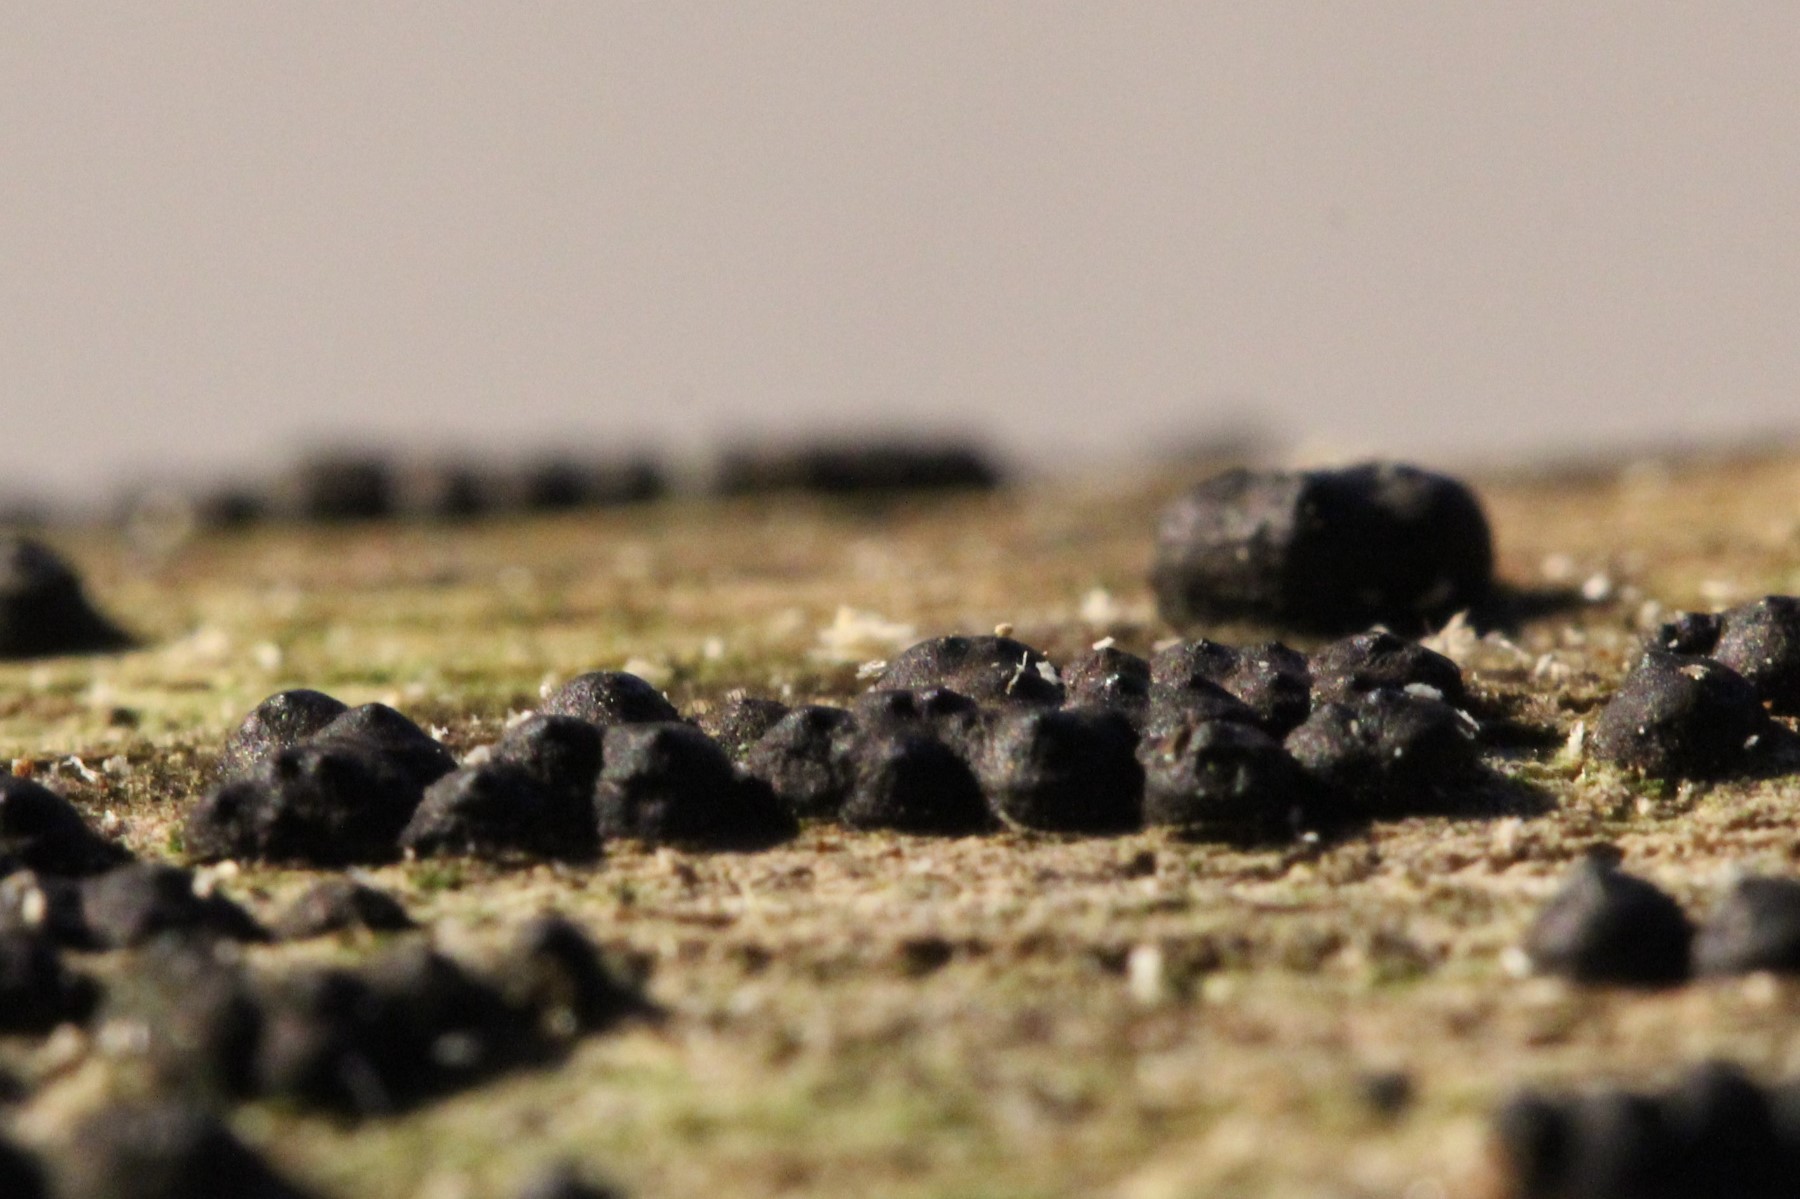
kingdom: Fungi
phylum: Ascomycota
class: Sordariomycetes
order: Xylariales
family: Xylariaceae
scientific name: Xylariaceae
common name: stødsvampfamilien
